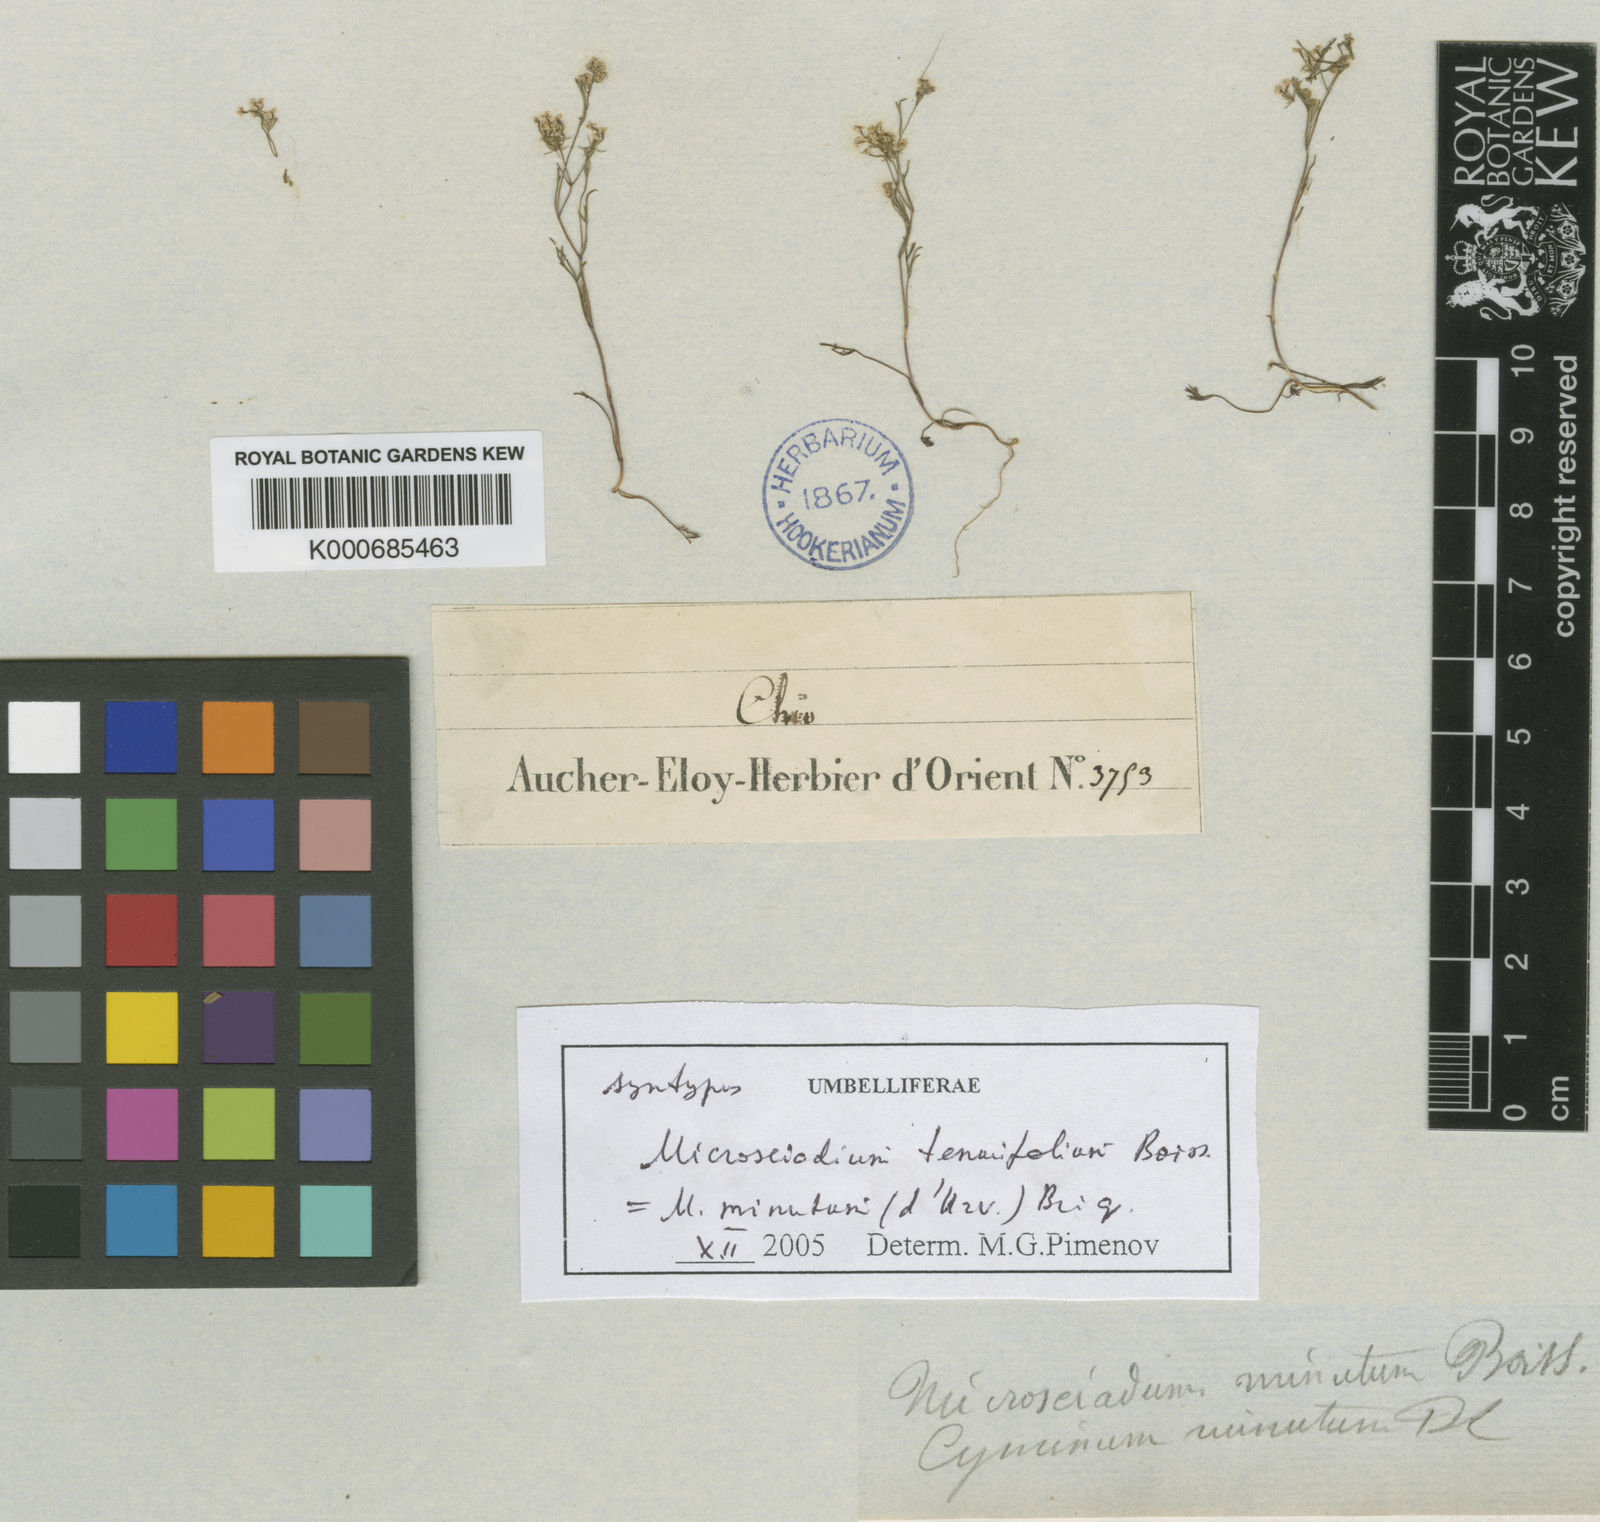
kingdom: Plantae
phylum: Tracheophyta
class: Magnoliopsida
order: Apiales
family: Apiaceae
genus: Microsciadium
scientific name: Microsciadium minutum
